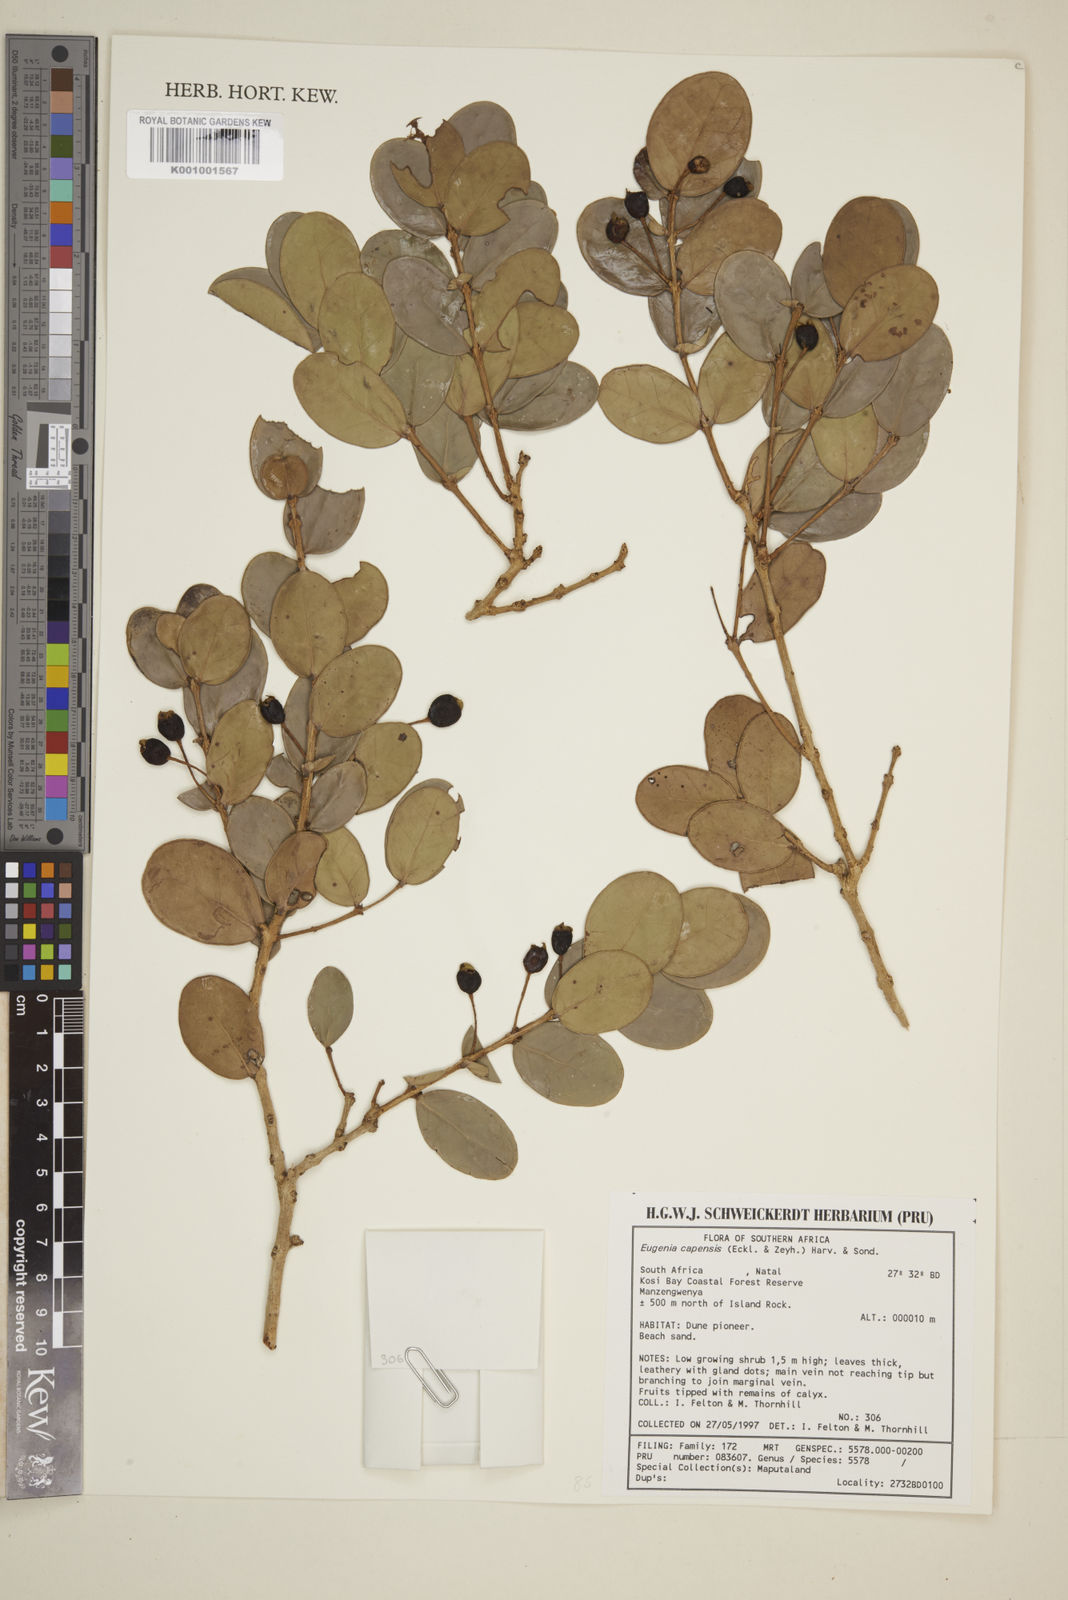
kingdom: Plantae
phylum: Tracheophyta
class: Magnoliopsida
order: Myrtales
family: Myrtaceae
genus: Eugenia
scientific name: Eugenia natalitia
